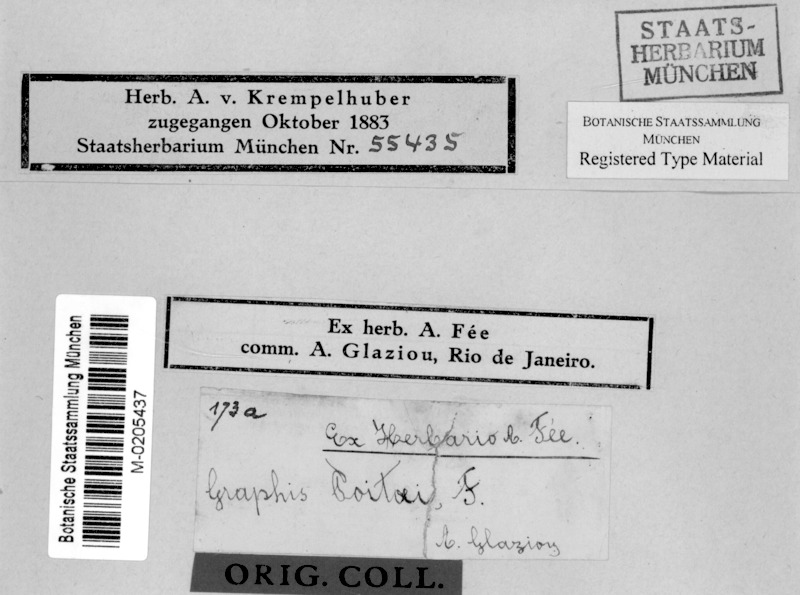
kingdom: Fungi
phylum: Ascomycota
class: Lecanoromycetes
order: Ostropales
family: Graphidaceae
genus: Diorygma
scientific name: Diorygma poitaei
